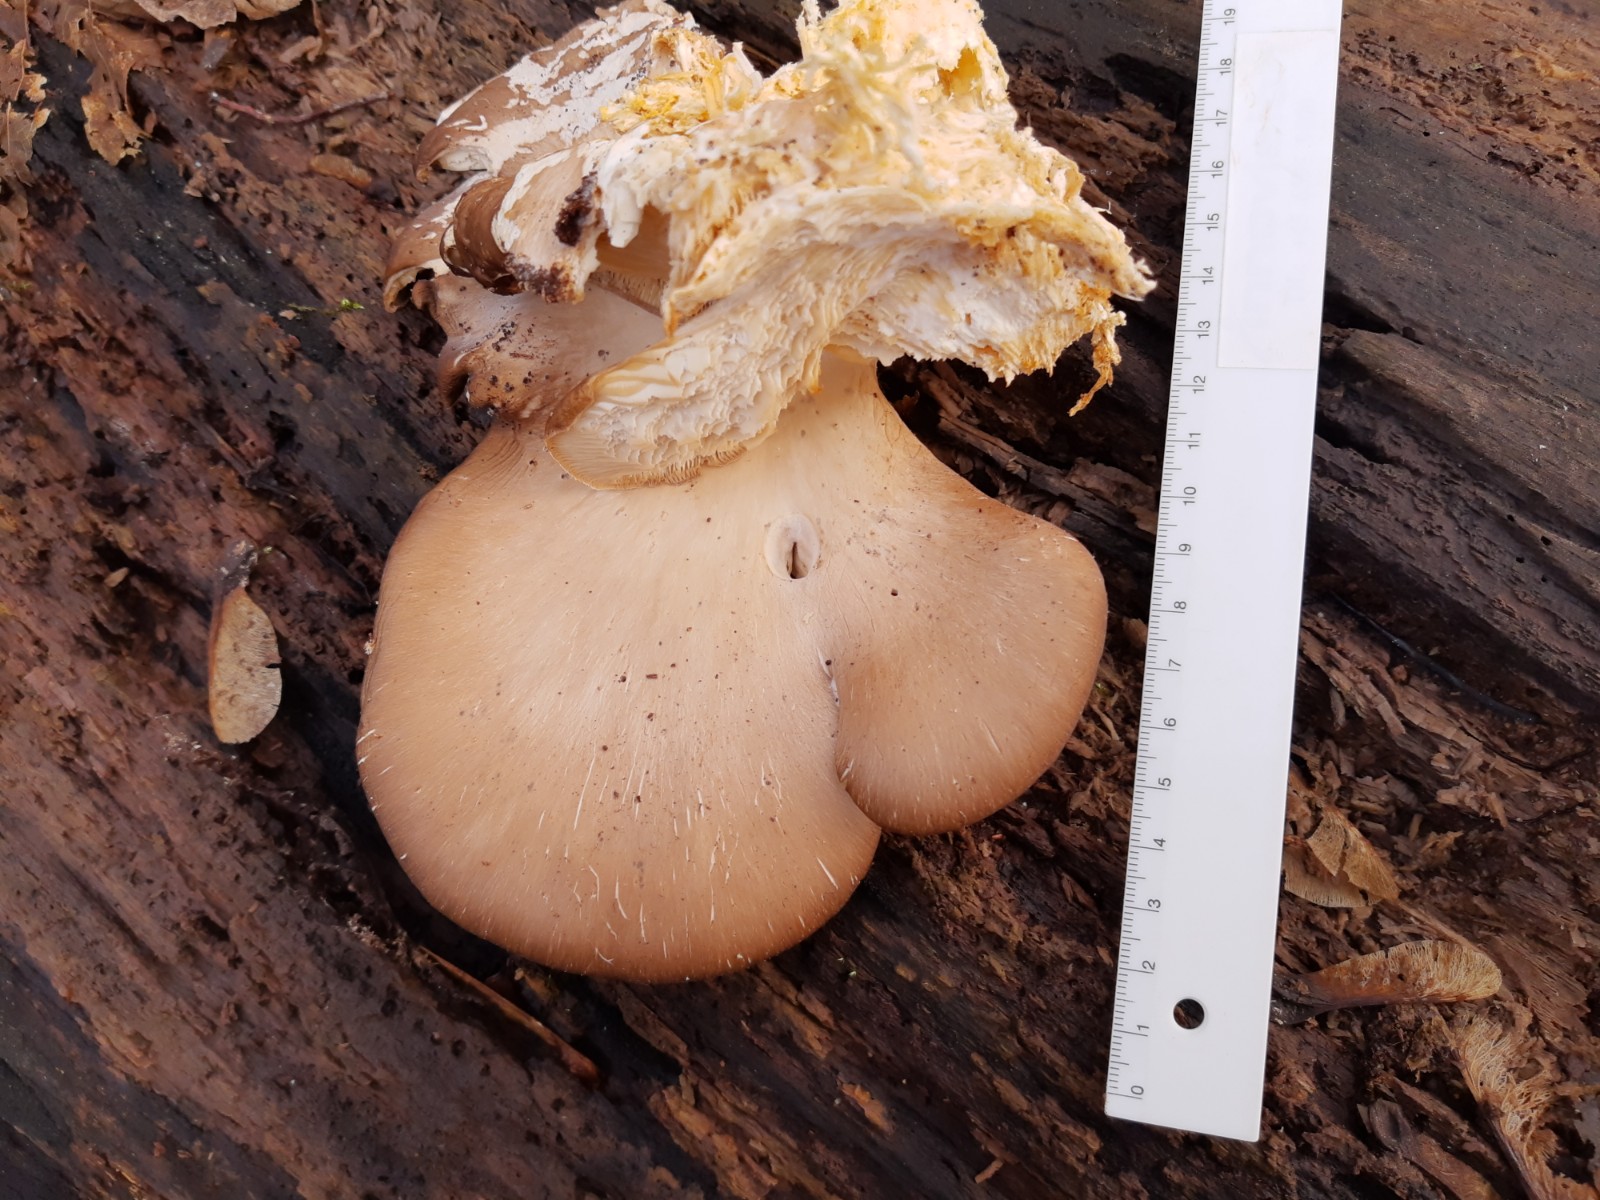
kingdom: Fungi
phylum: Basidiomycota
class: Agaricomycetes
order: Agaricales
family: Pleurotaceae
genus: Pleurotus
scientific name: Pleurotus ostreatus
